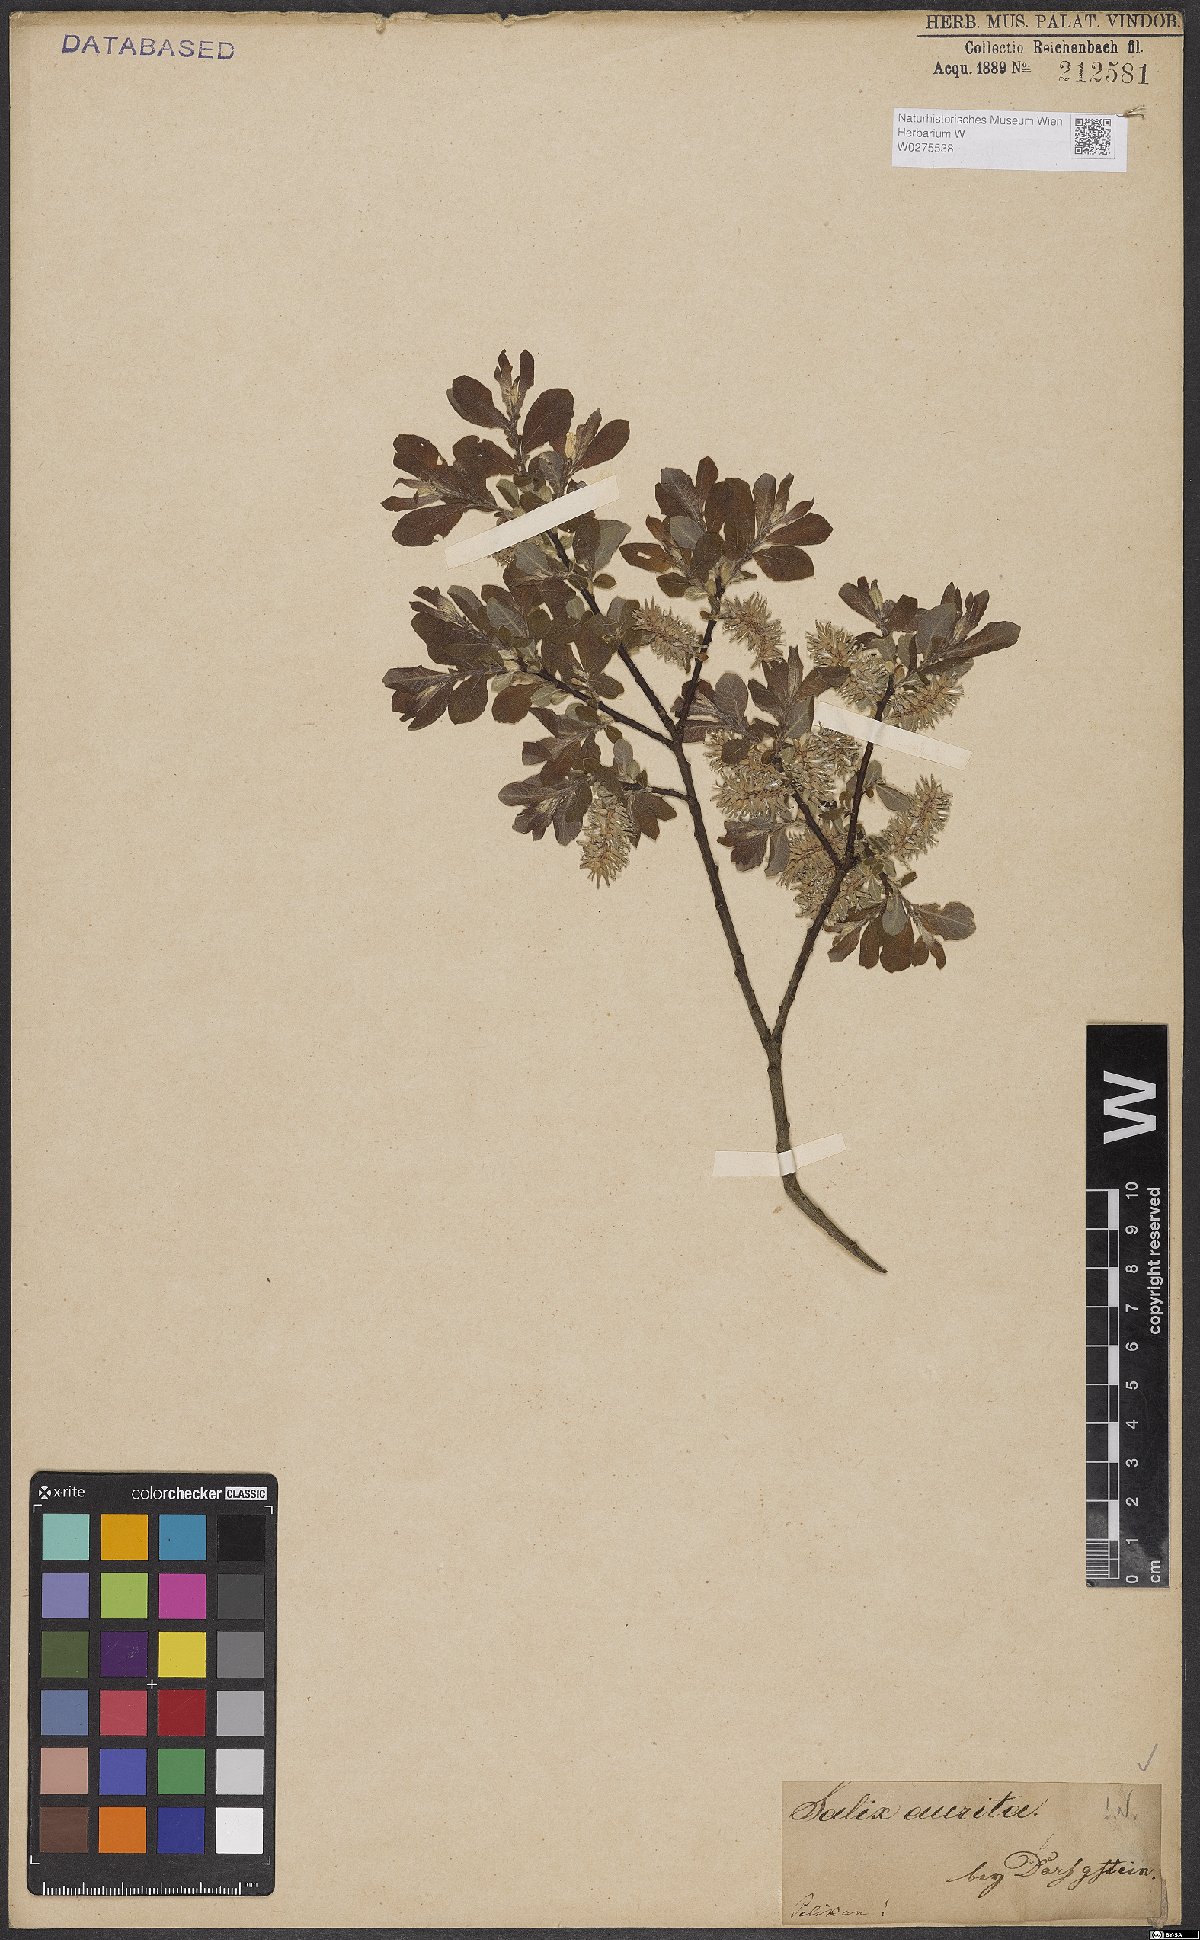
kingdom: Plantae
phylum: Tracheophyta
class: Magnoliopsida
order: Malpighiales
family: Salicaceae
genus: Salix
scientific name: Salix aurita
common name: Eared willow
